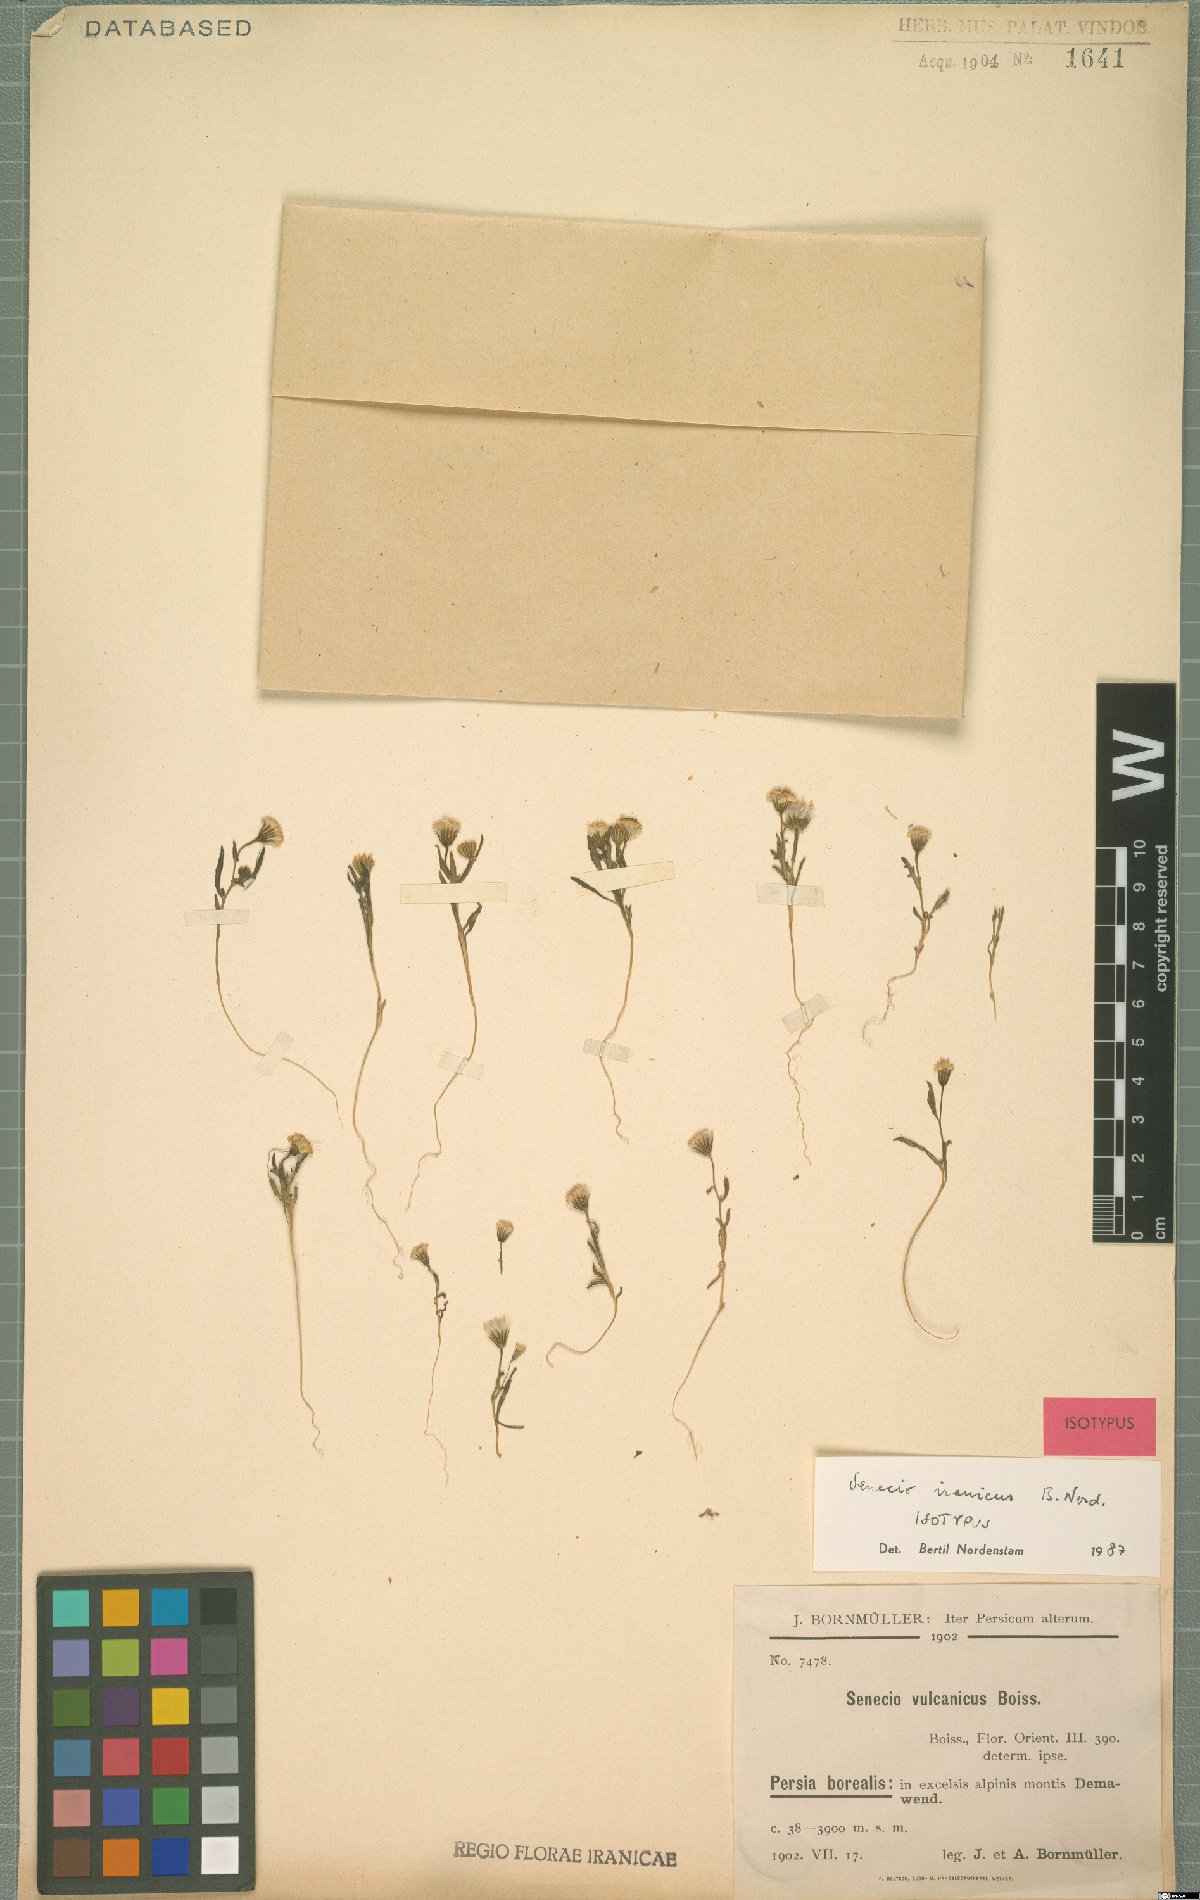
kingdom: Plantae
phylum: Tracheophyta
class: Magnoliopsida
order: Asterales
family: Asteraceae
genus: Senecio
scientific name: Senecio iranicus
